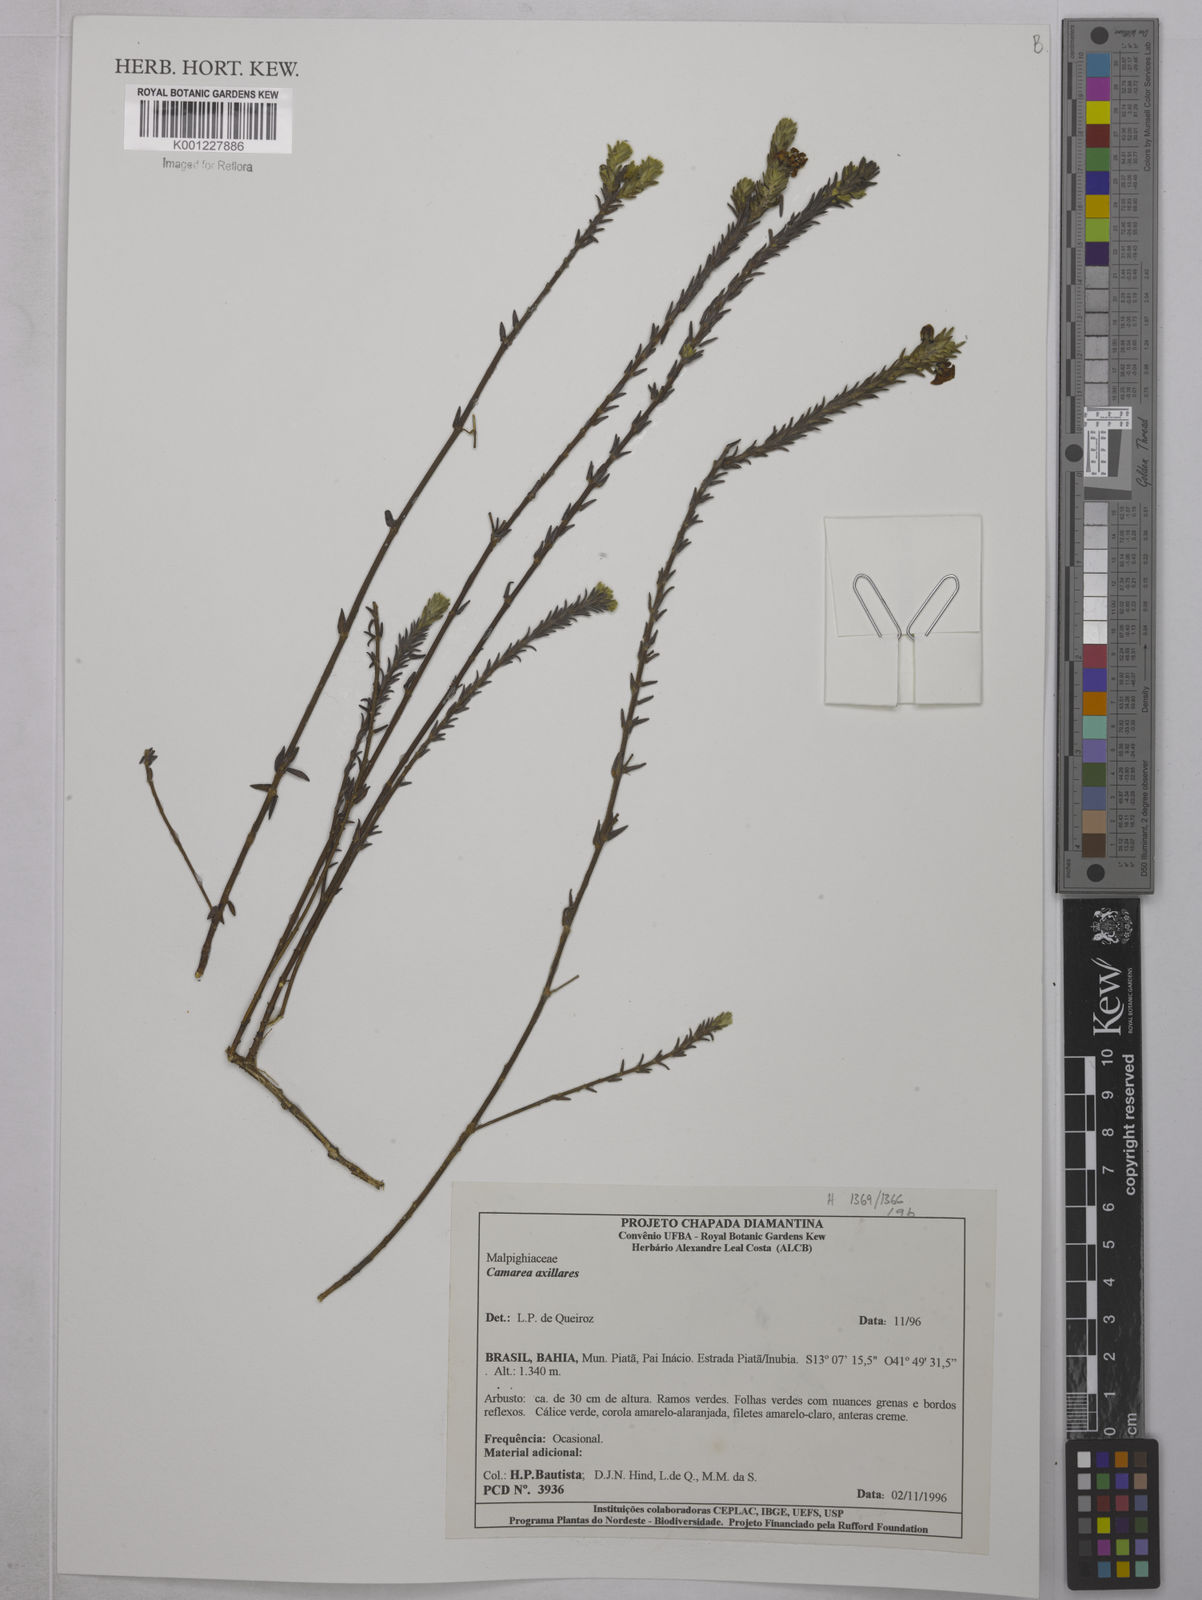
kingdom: Plantae
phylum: Tracheophyta
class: Magnoliopsida
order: Malpighiales
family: Malpighiaceae
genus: Camarea
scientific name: Camarea axillaris
